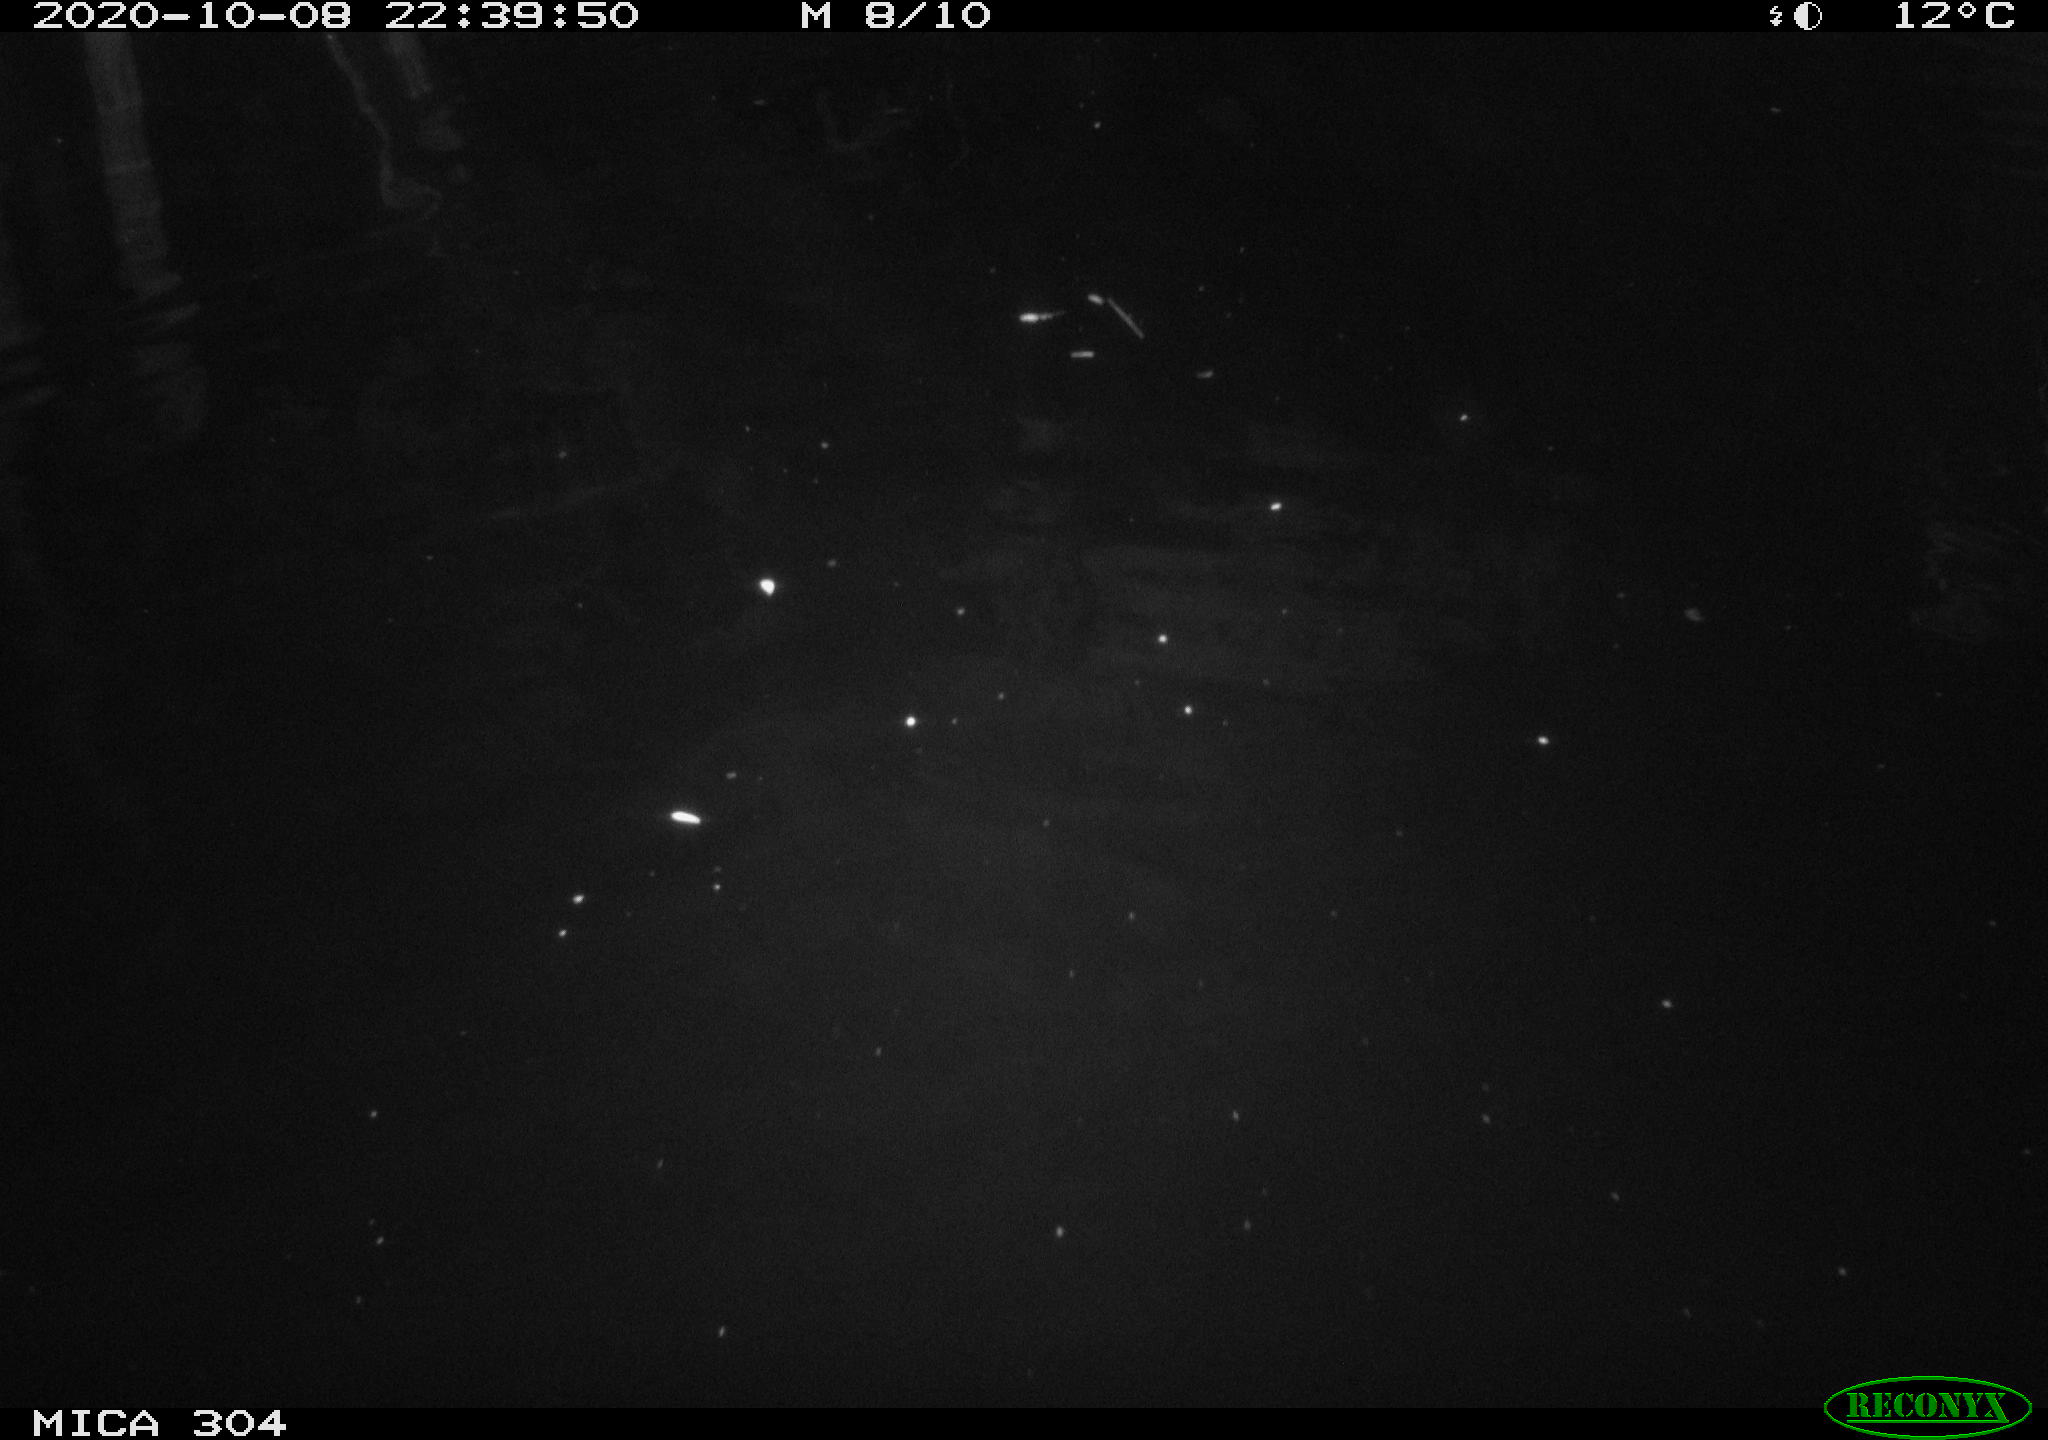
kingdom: Animalia
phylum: Chordata
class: Mammalia
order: Rodentia
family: Cricetidae
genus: Ondatra
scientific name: Ondatra zibethicus
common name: Muskrat
